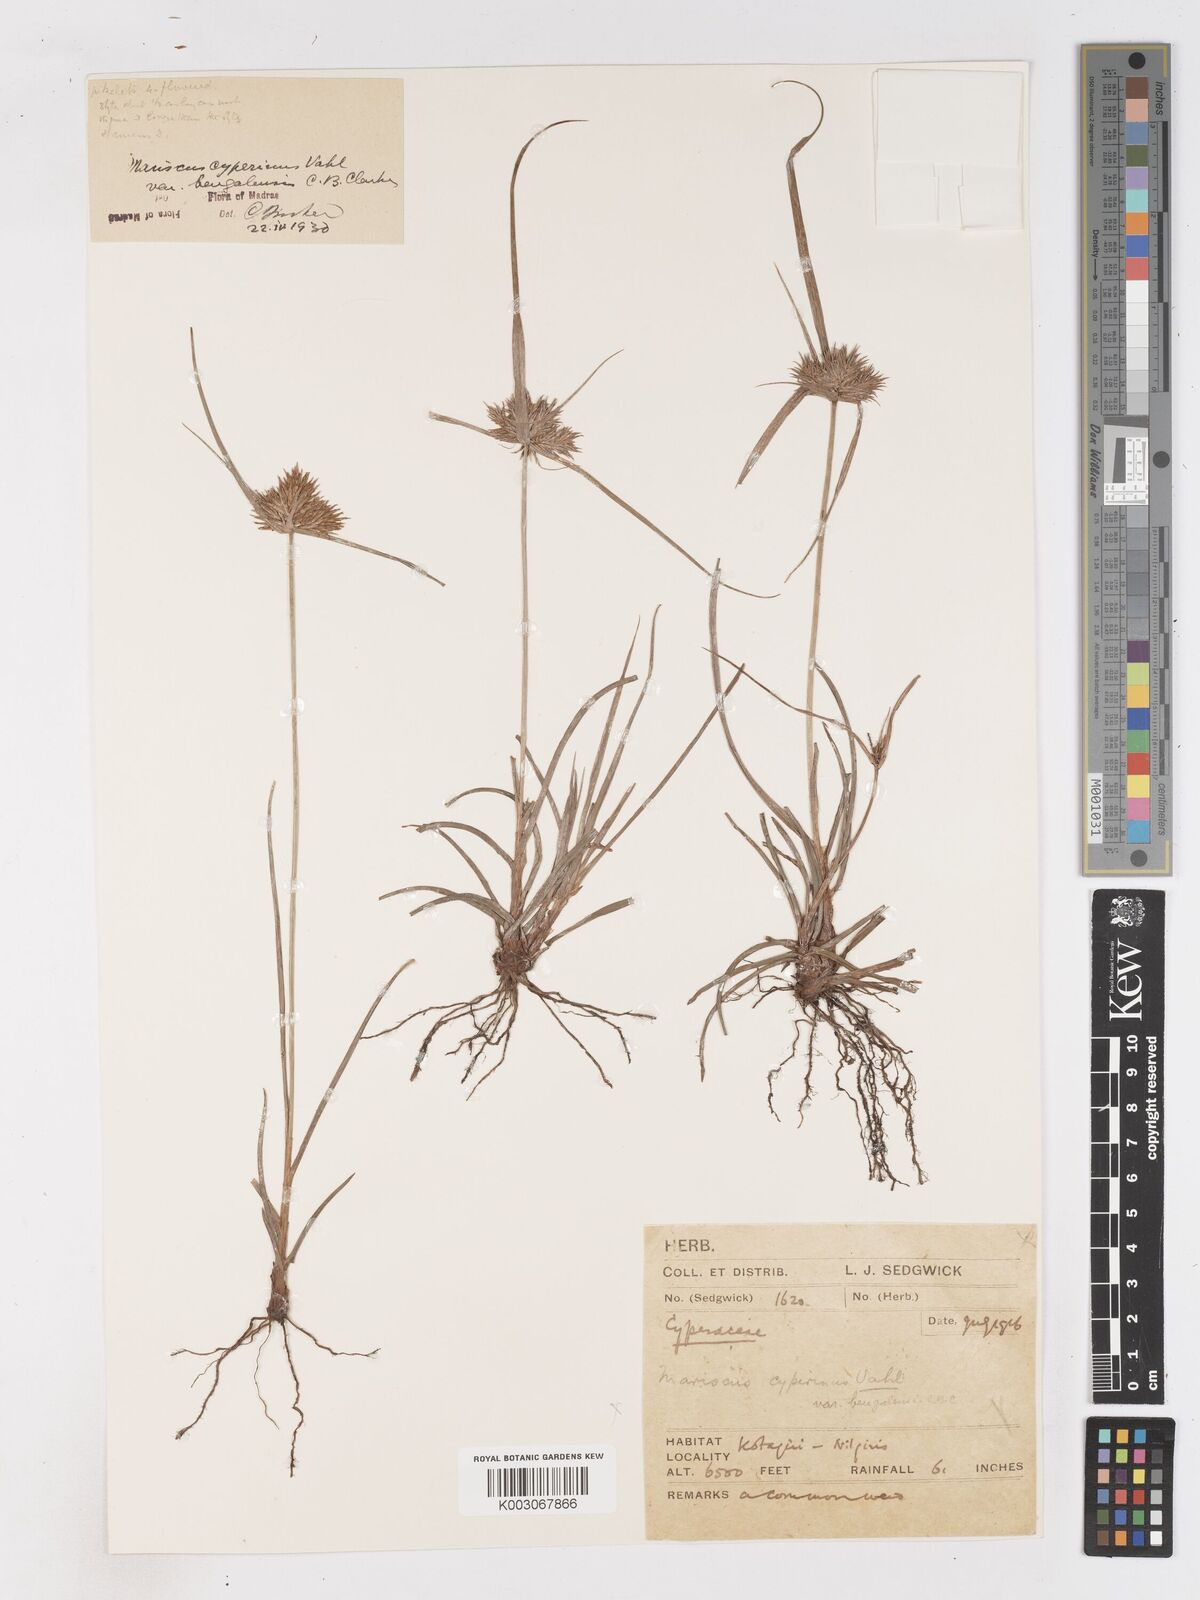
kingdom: Plantae
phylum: Tracheophyta
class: Liliopsida
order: Poales
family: Cyperaceae
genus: Cyperus
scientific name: Cyperus cyperinus
